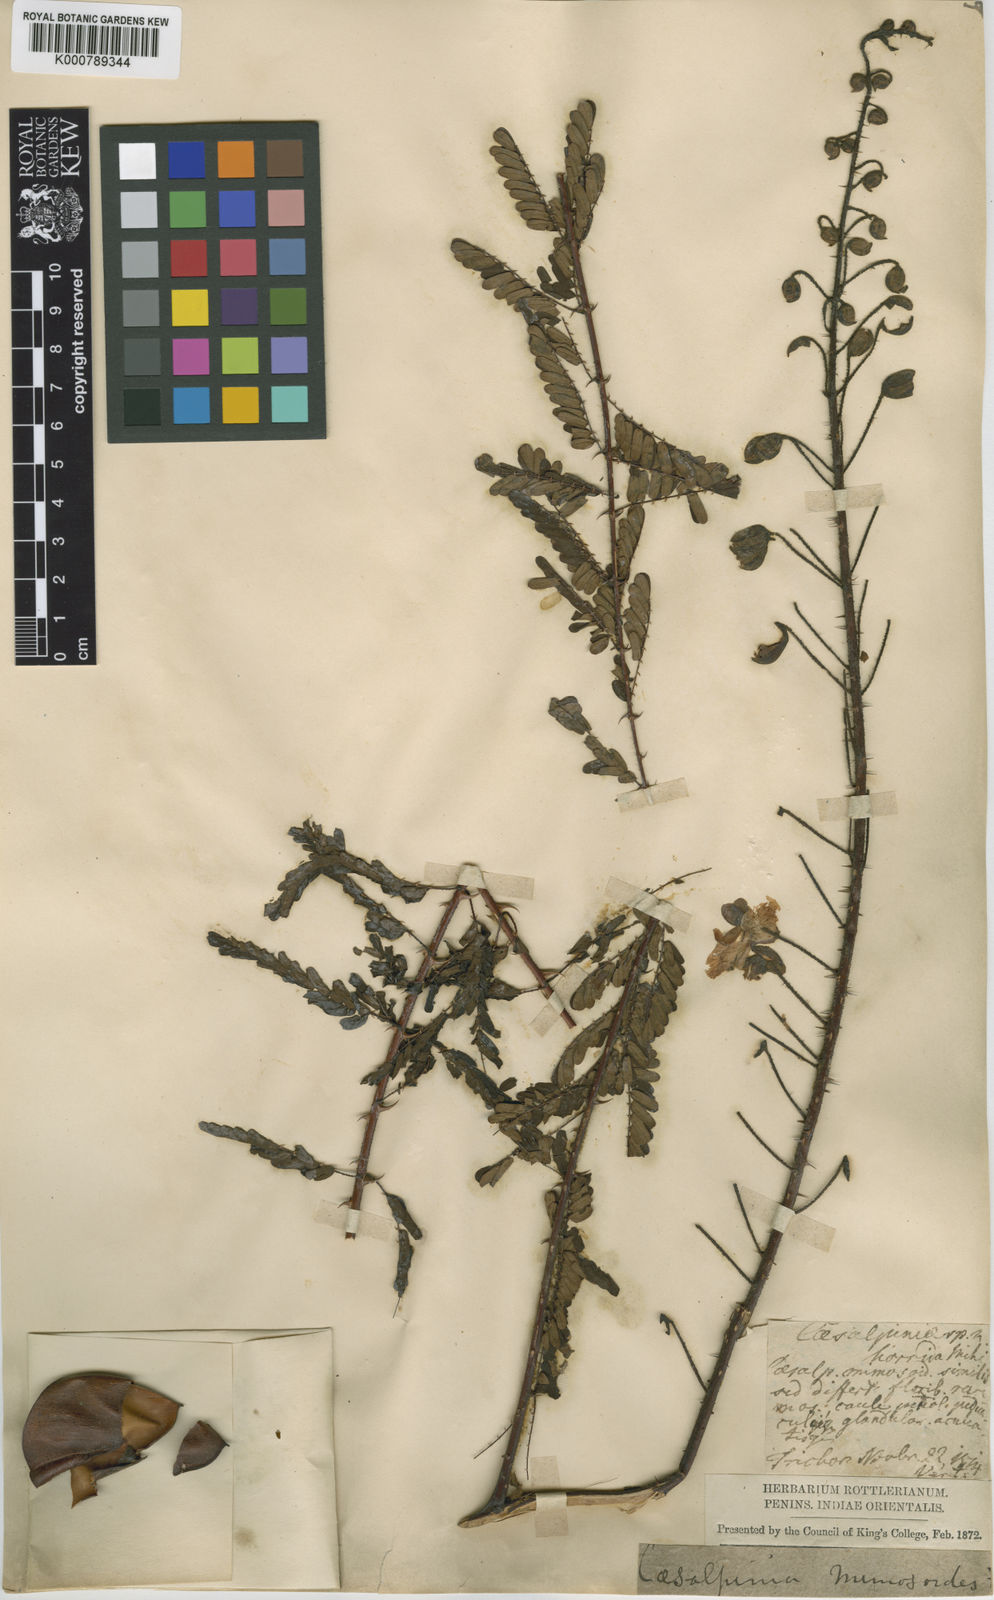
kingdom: Plantae
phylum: Tracheophyta
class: Magnoliopsida
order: Fabales
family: Fabaceae
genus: Hultholia
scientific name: Hultholia mimosoides
